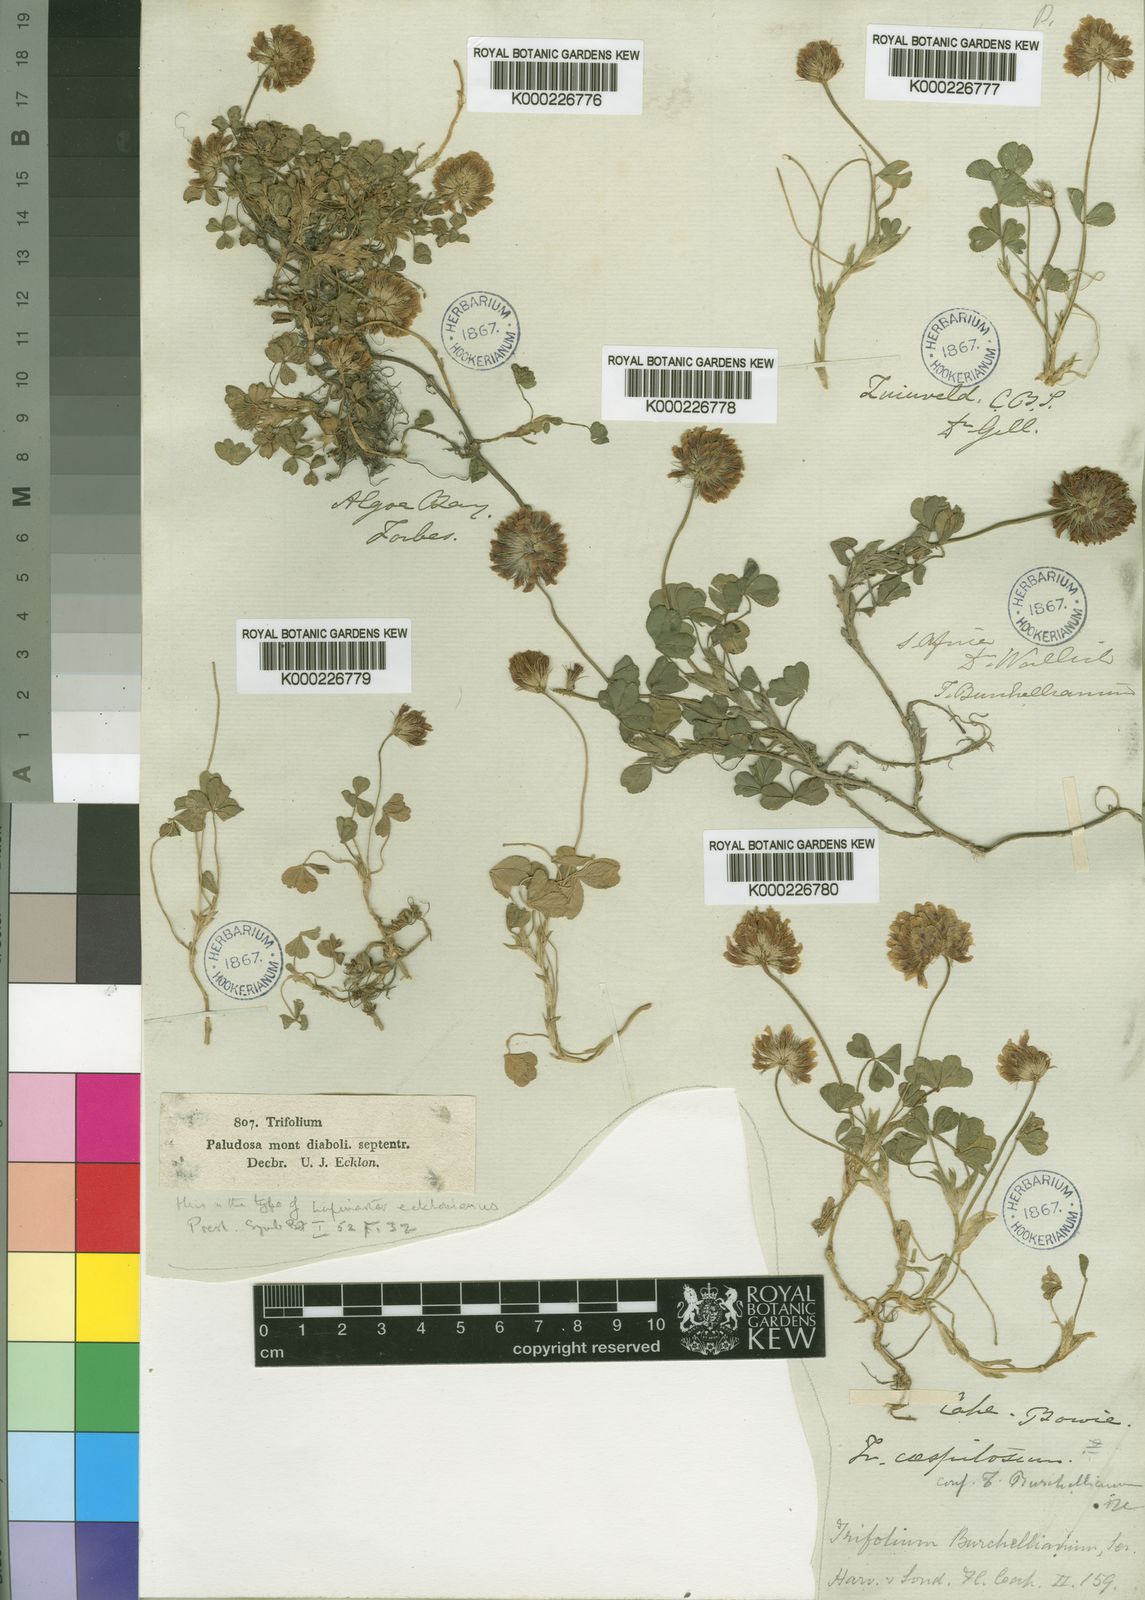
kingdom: Plantae
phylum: Tracheophyta
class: Magnoliopsida
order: Fabales
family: Fabaceae
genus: Trifolium
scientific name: Trifolium burchellianum
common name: Burchell's clover
